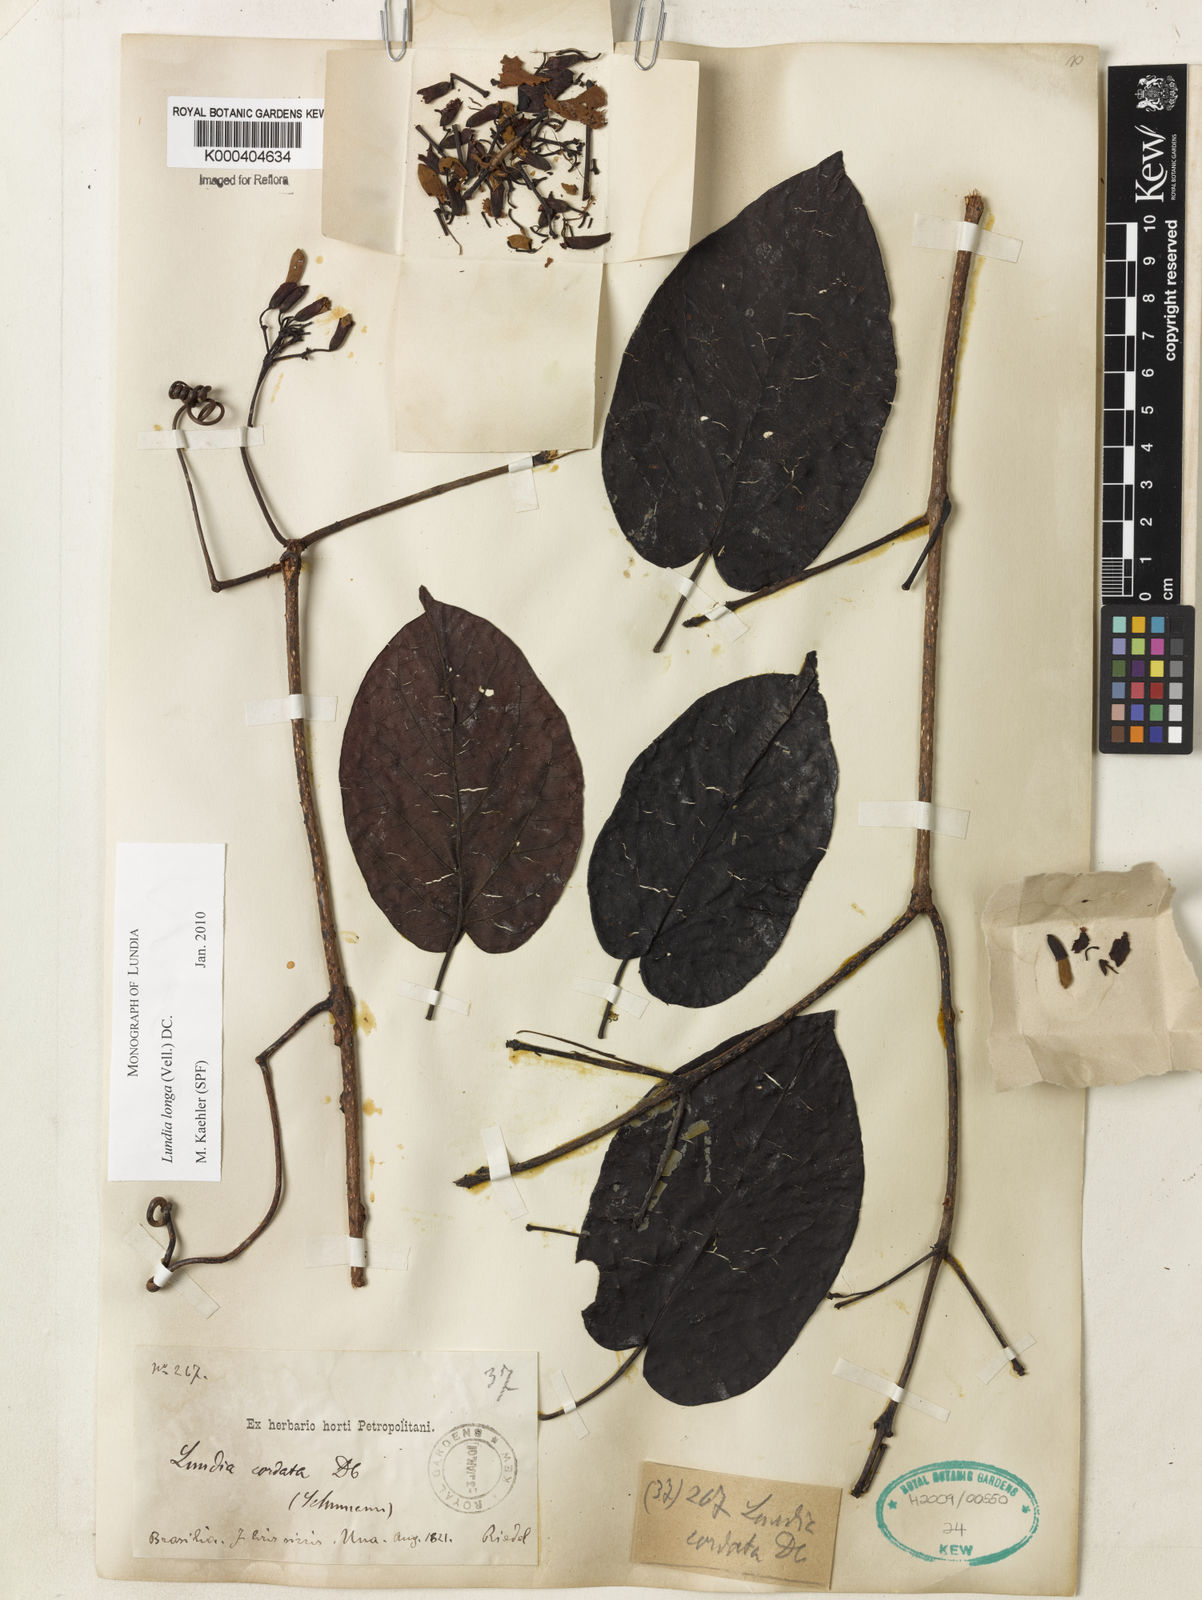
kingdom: Plantae
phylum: Tracheophyta
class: Magnoliopsida
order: Lamiales
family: Bignoniaceae
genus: Lundia
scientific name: Lundia longa
